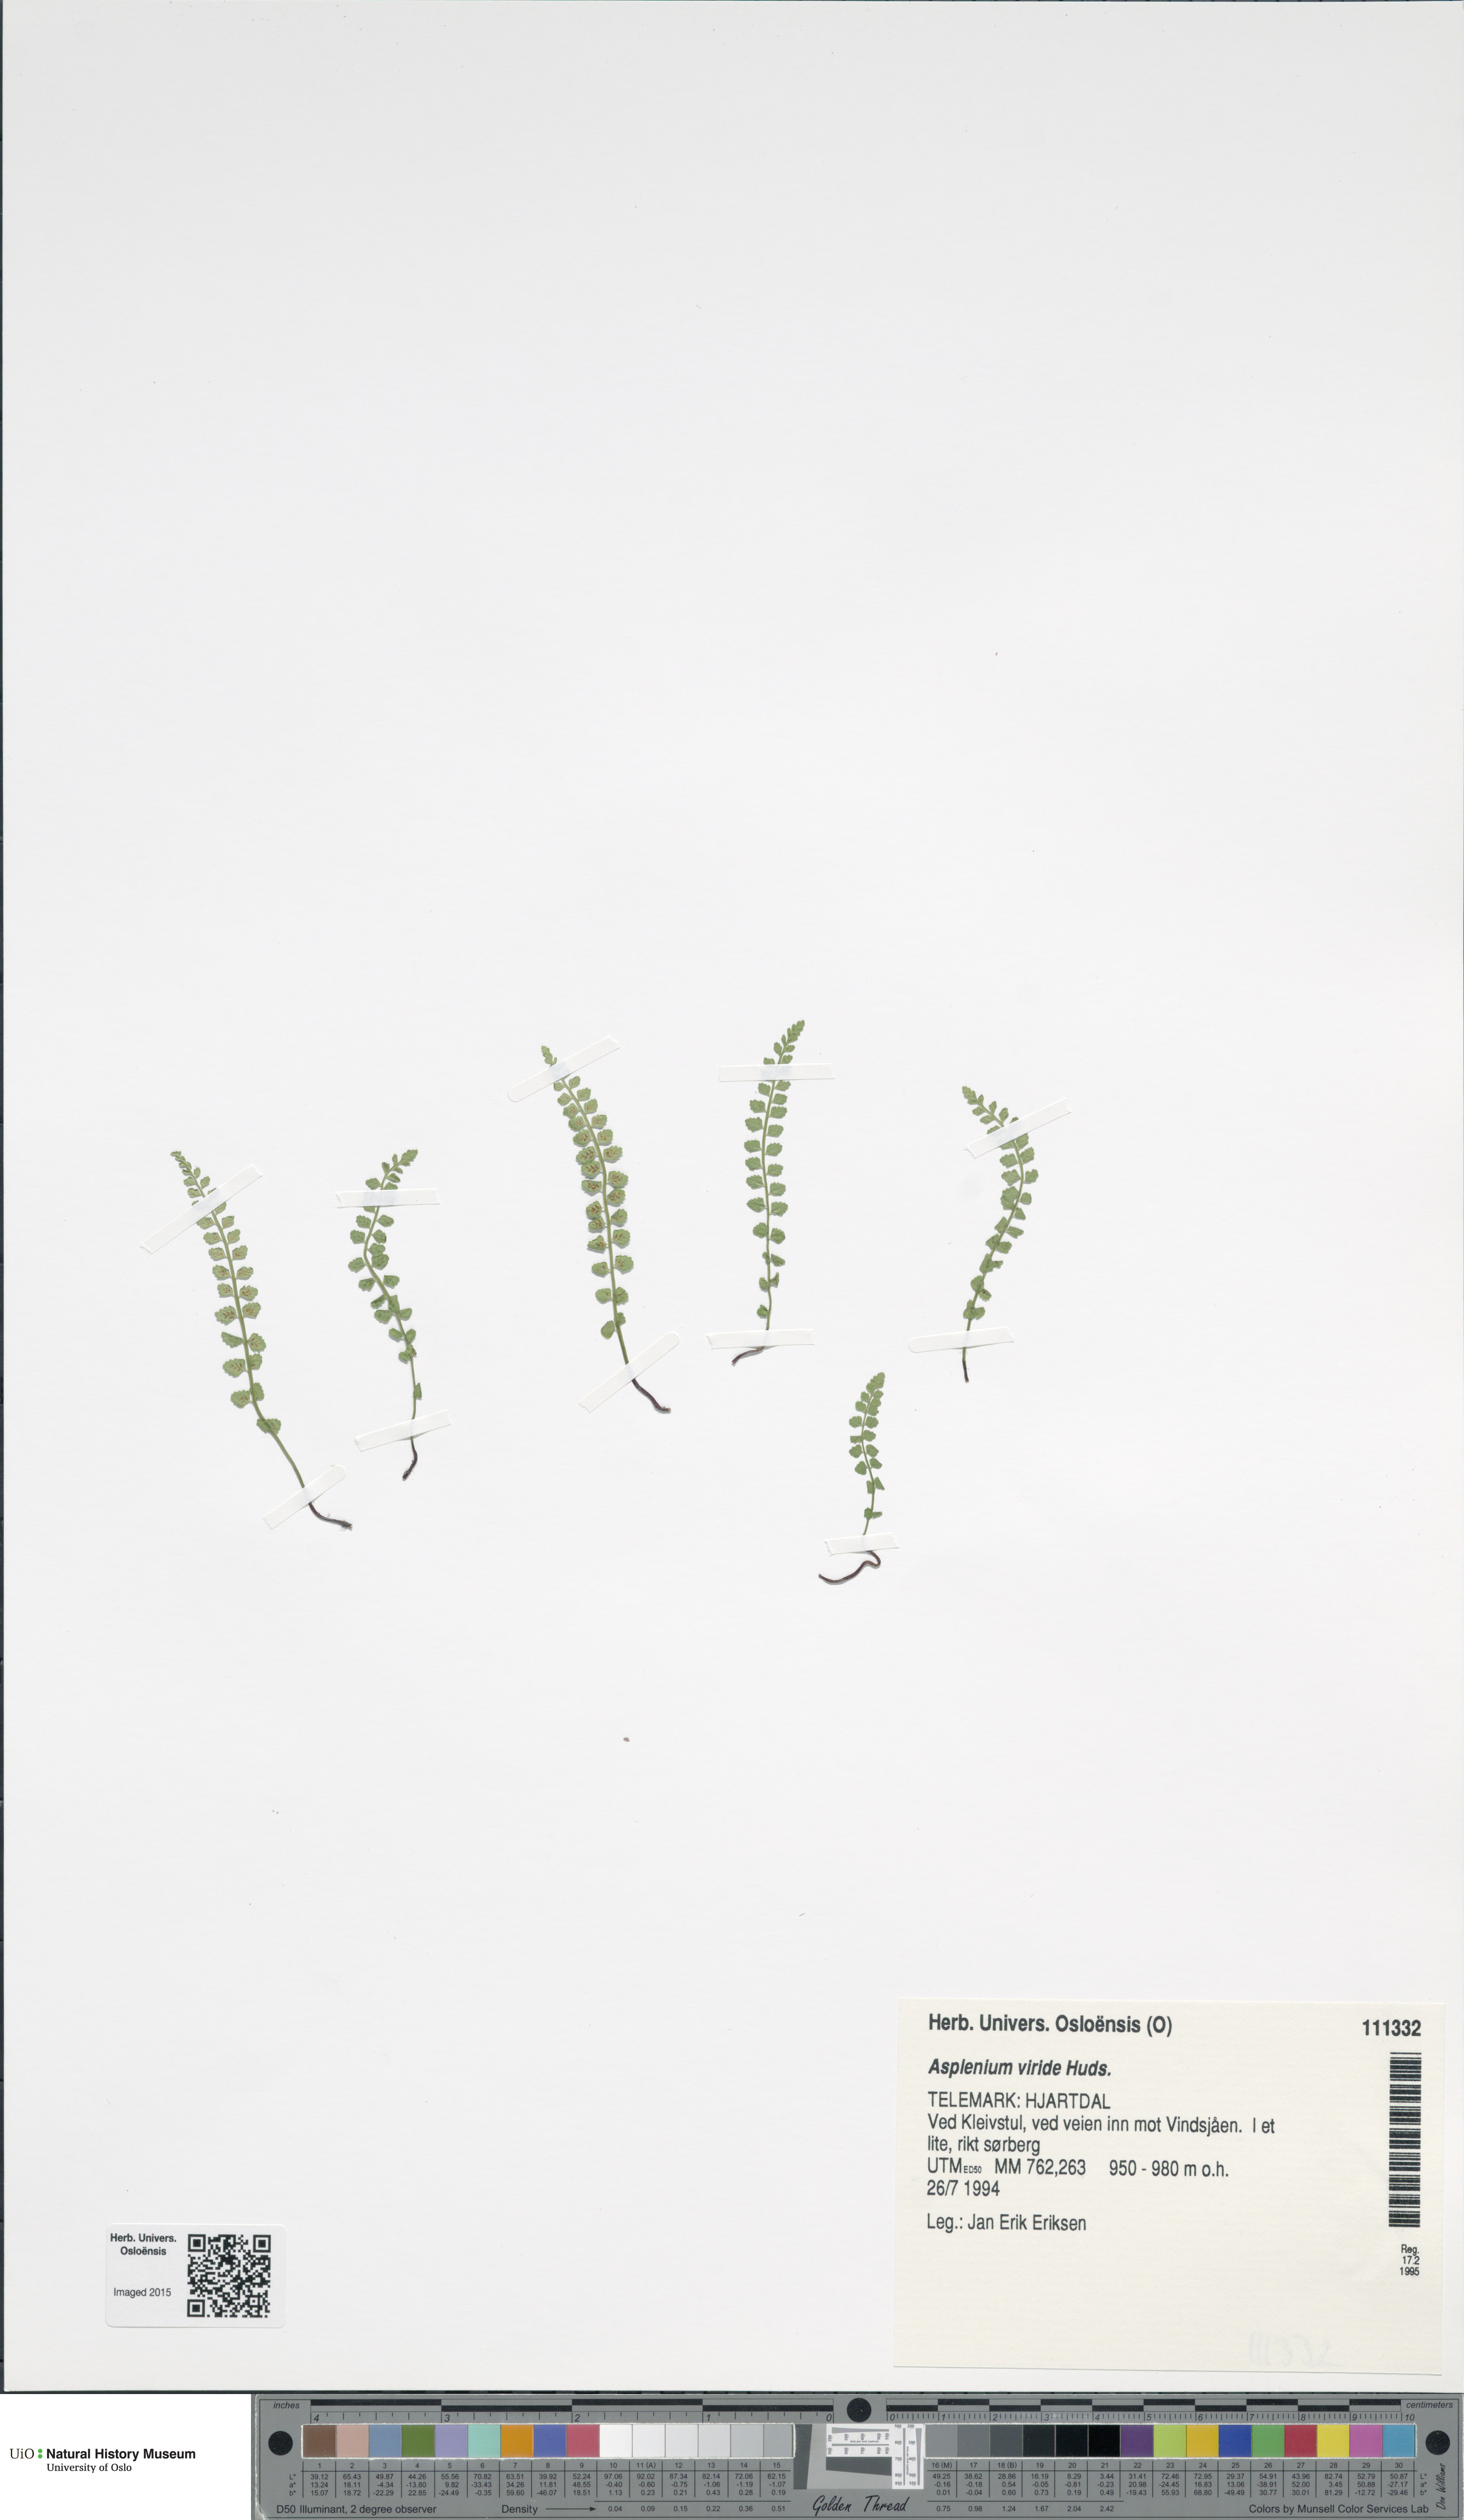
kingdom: Plantae
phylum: Tracheophyta
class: Polypodiopsida
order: Polypodiales
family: Aspleniaceae
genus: Asplenium
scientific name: Asplenium viride
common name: Green spleenwort
